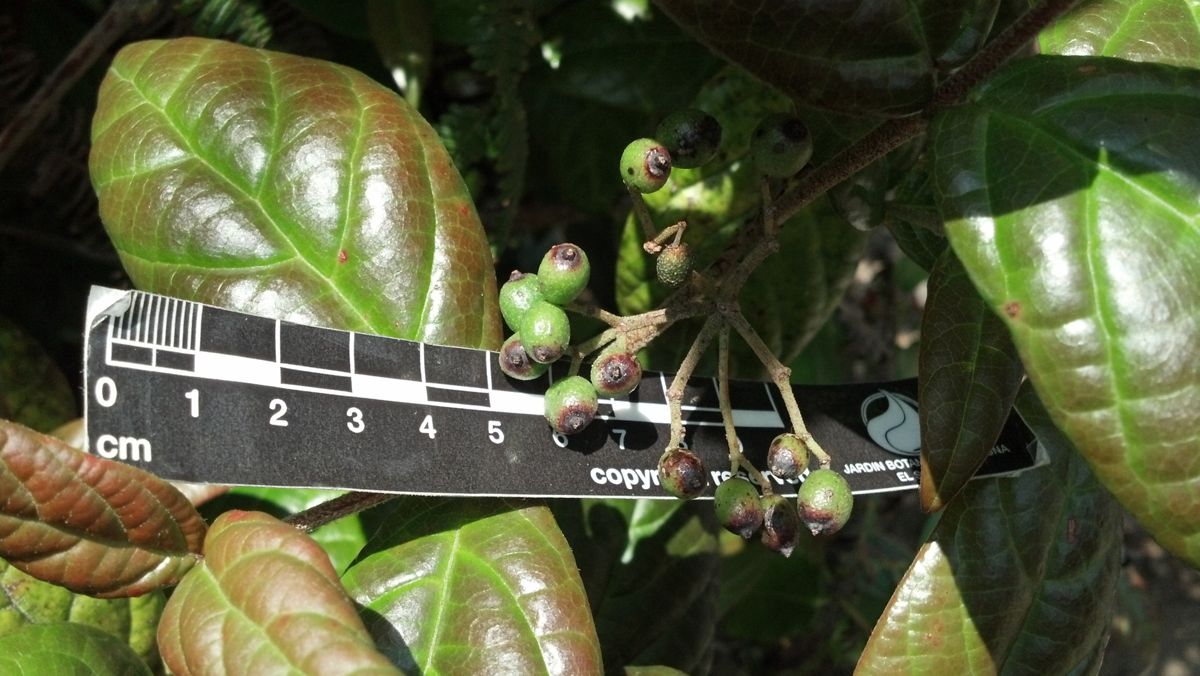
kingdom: Plantae
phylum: Tracheophyta
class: Magnoliopsida
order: Dipsacales
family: Viburnaceae
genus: Viburnum
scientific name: Viburnum lautum
